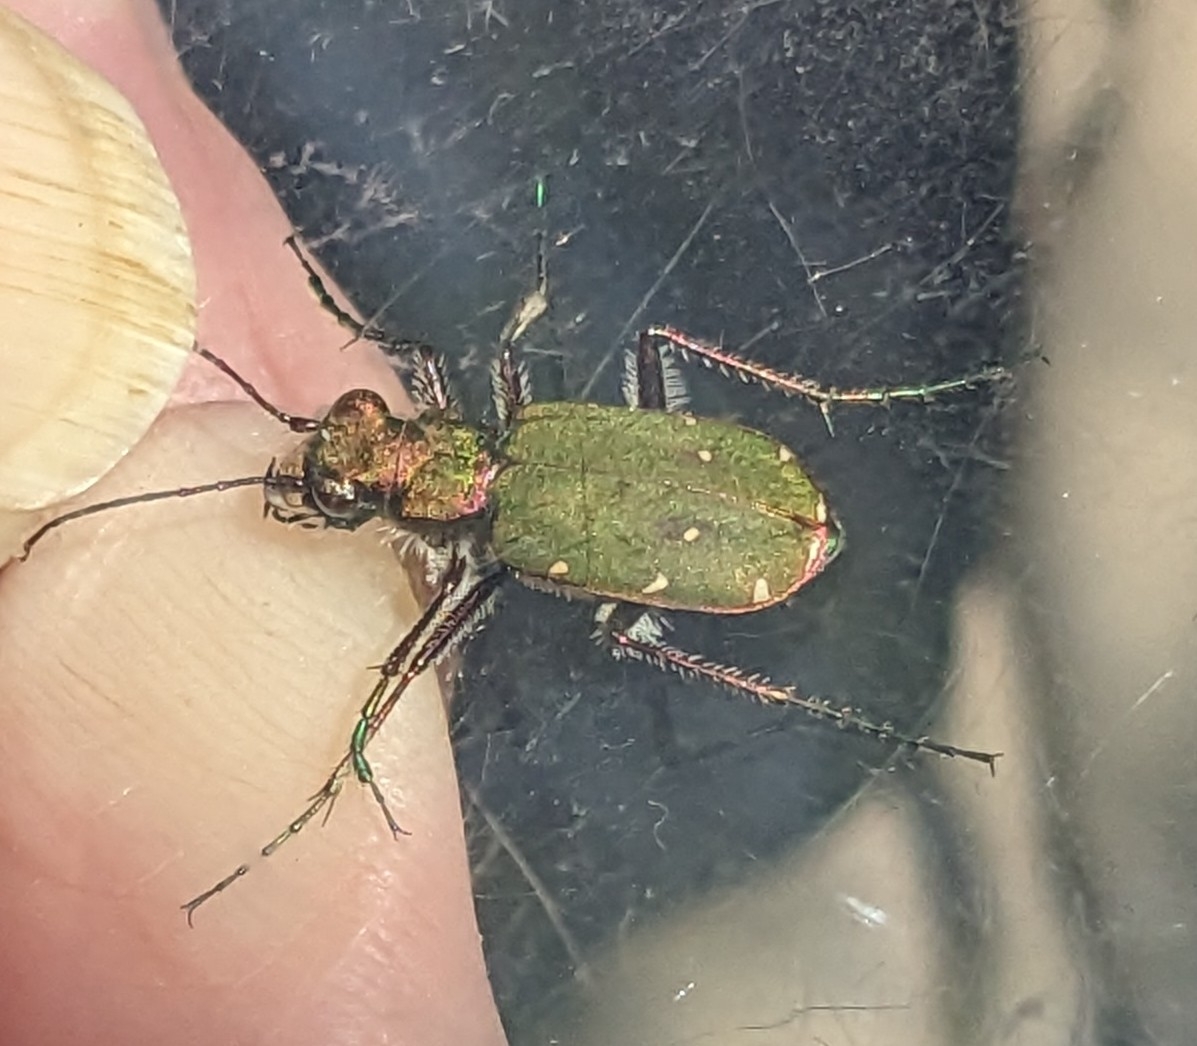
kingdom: Animalia
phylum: Arthropoda
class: Insecta
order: Coleoptera
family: Carabidae
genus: Cicindela
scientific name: Cicindela campestris
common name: Grøn sandspringer
